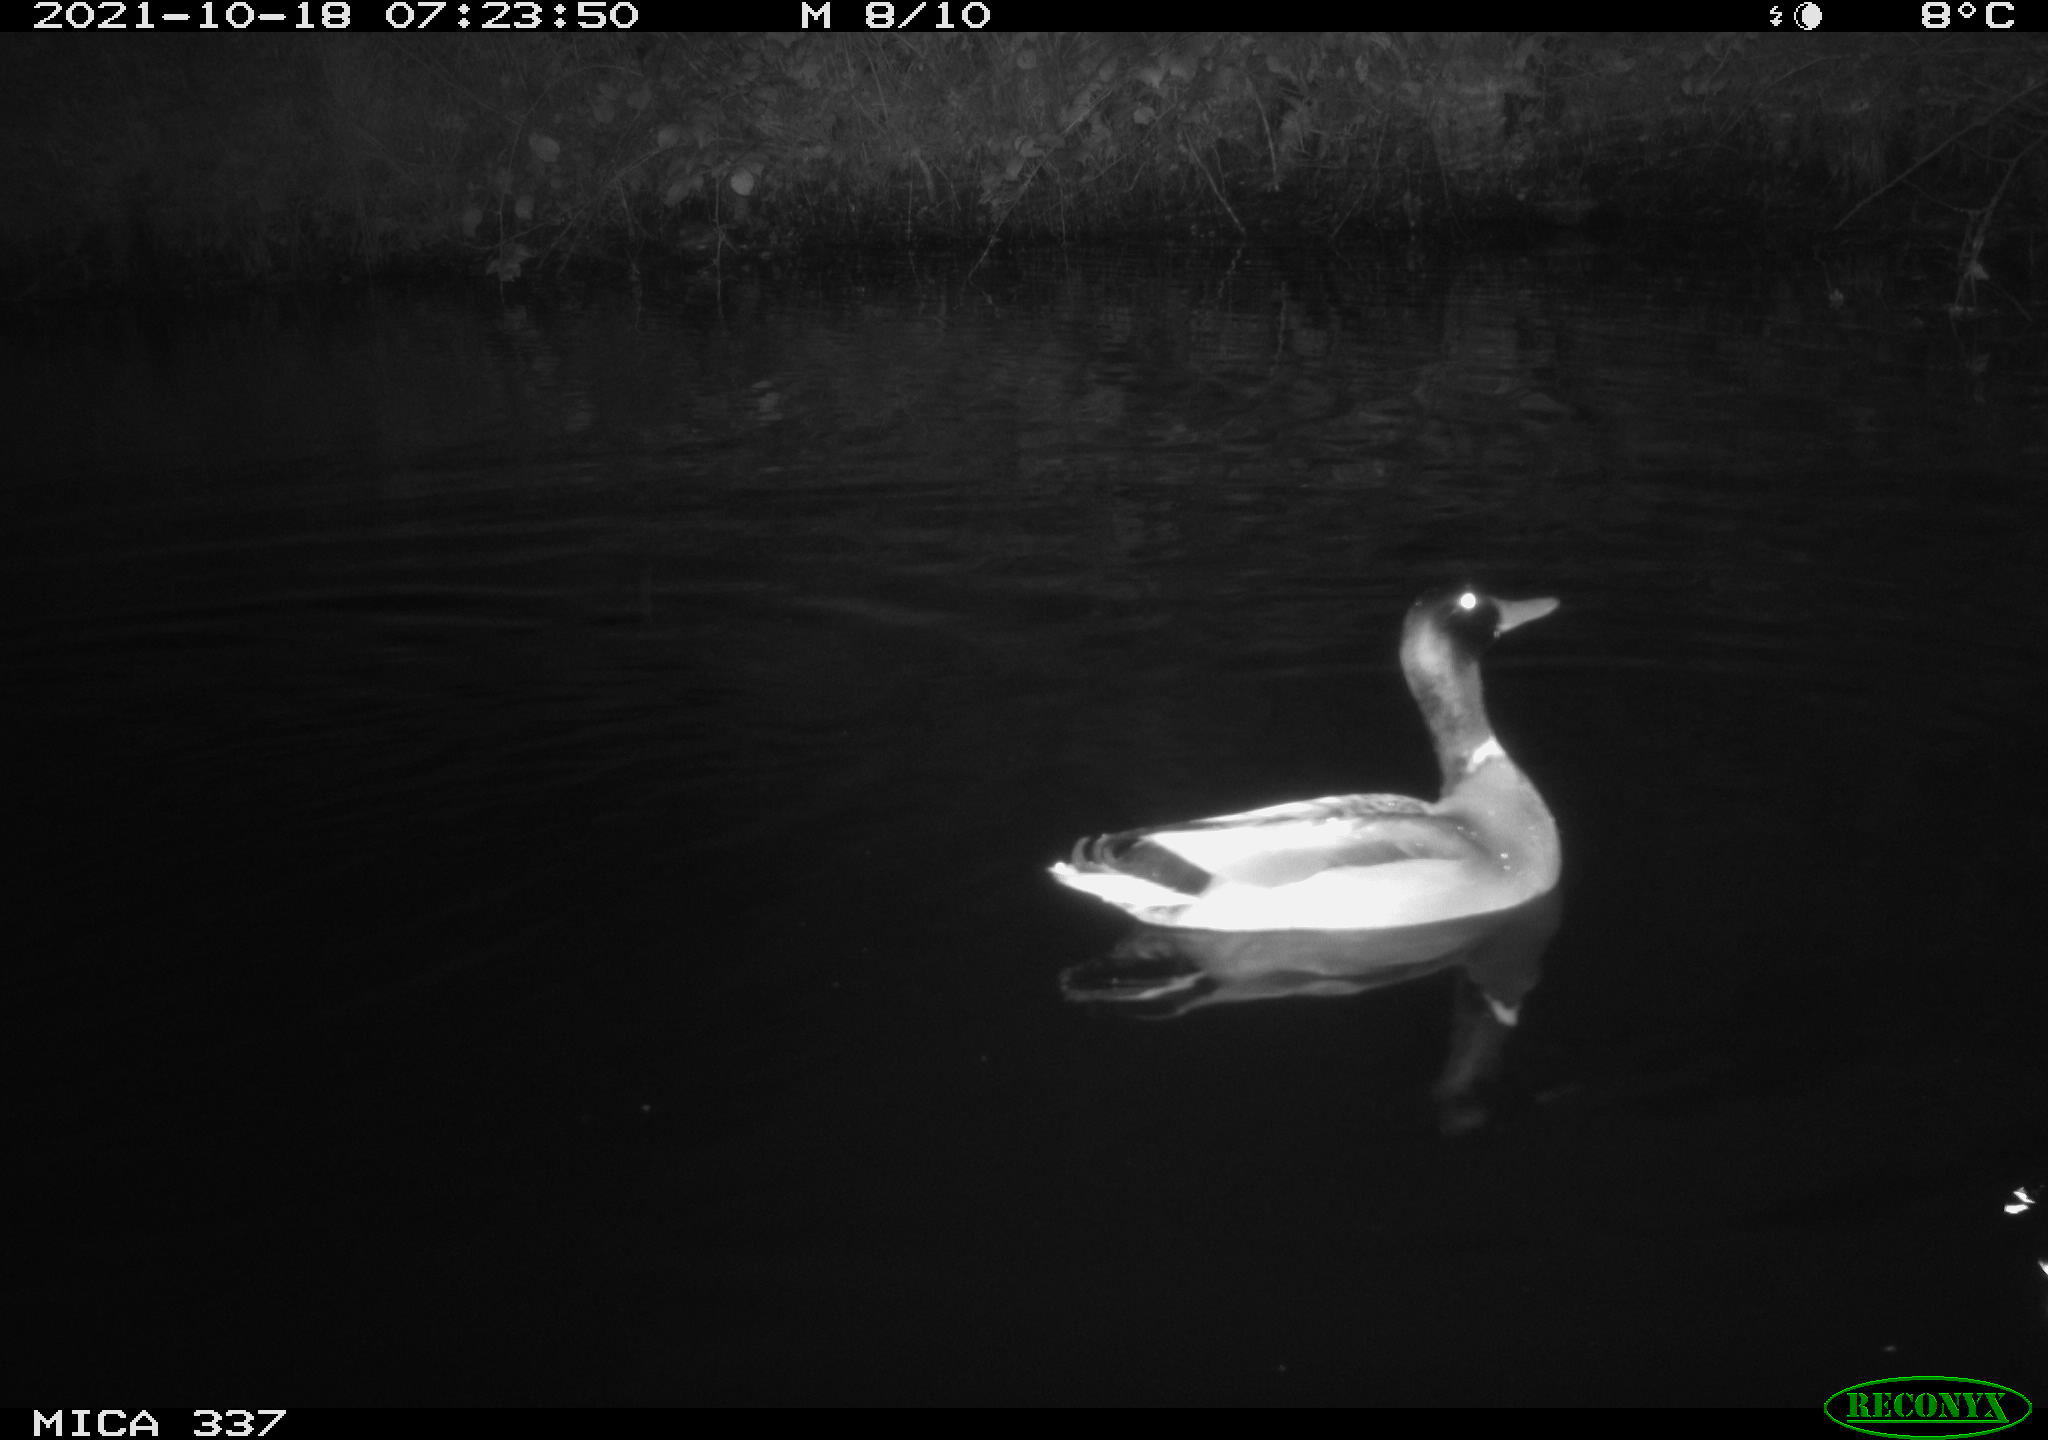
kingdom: Animalia
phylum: Chordata
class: Aves
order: Anseriformes
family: Anatidae
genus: Anas
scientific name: Anas platyrhynchos
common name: Mallard
